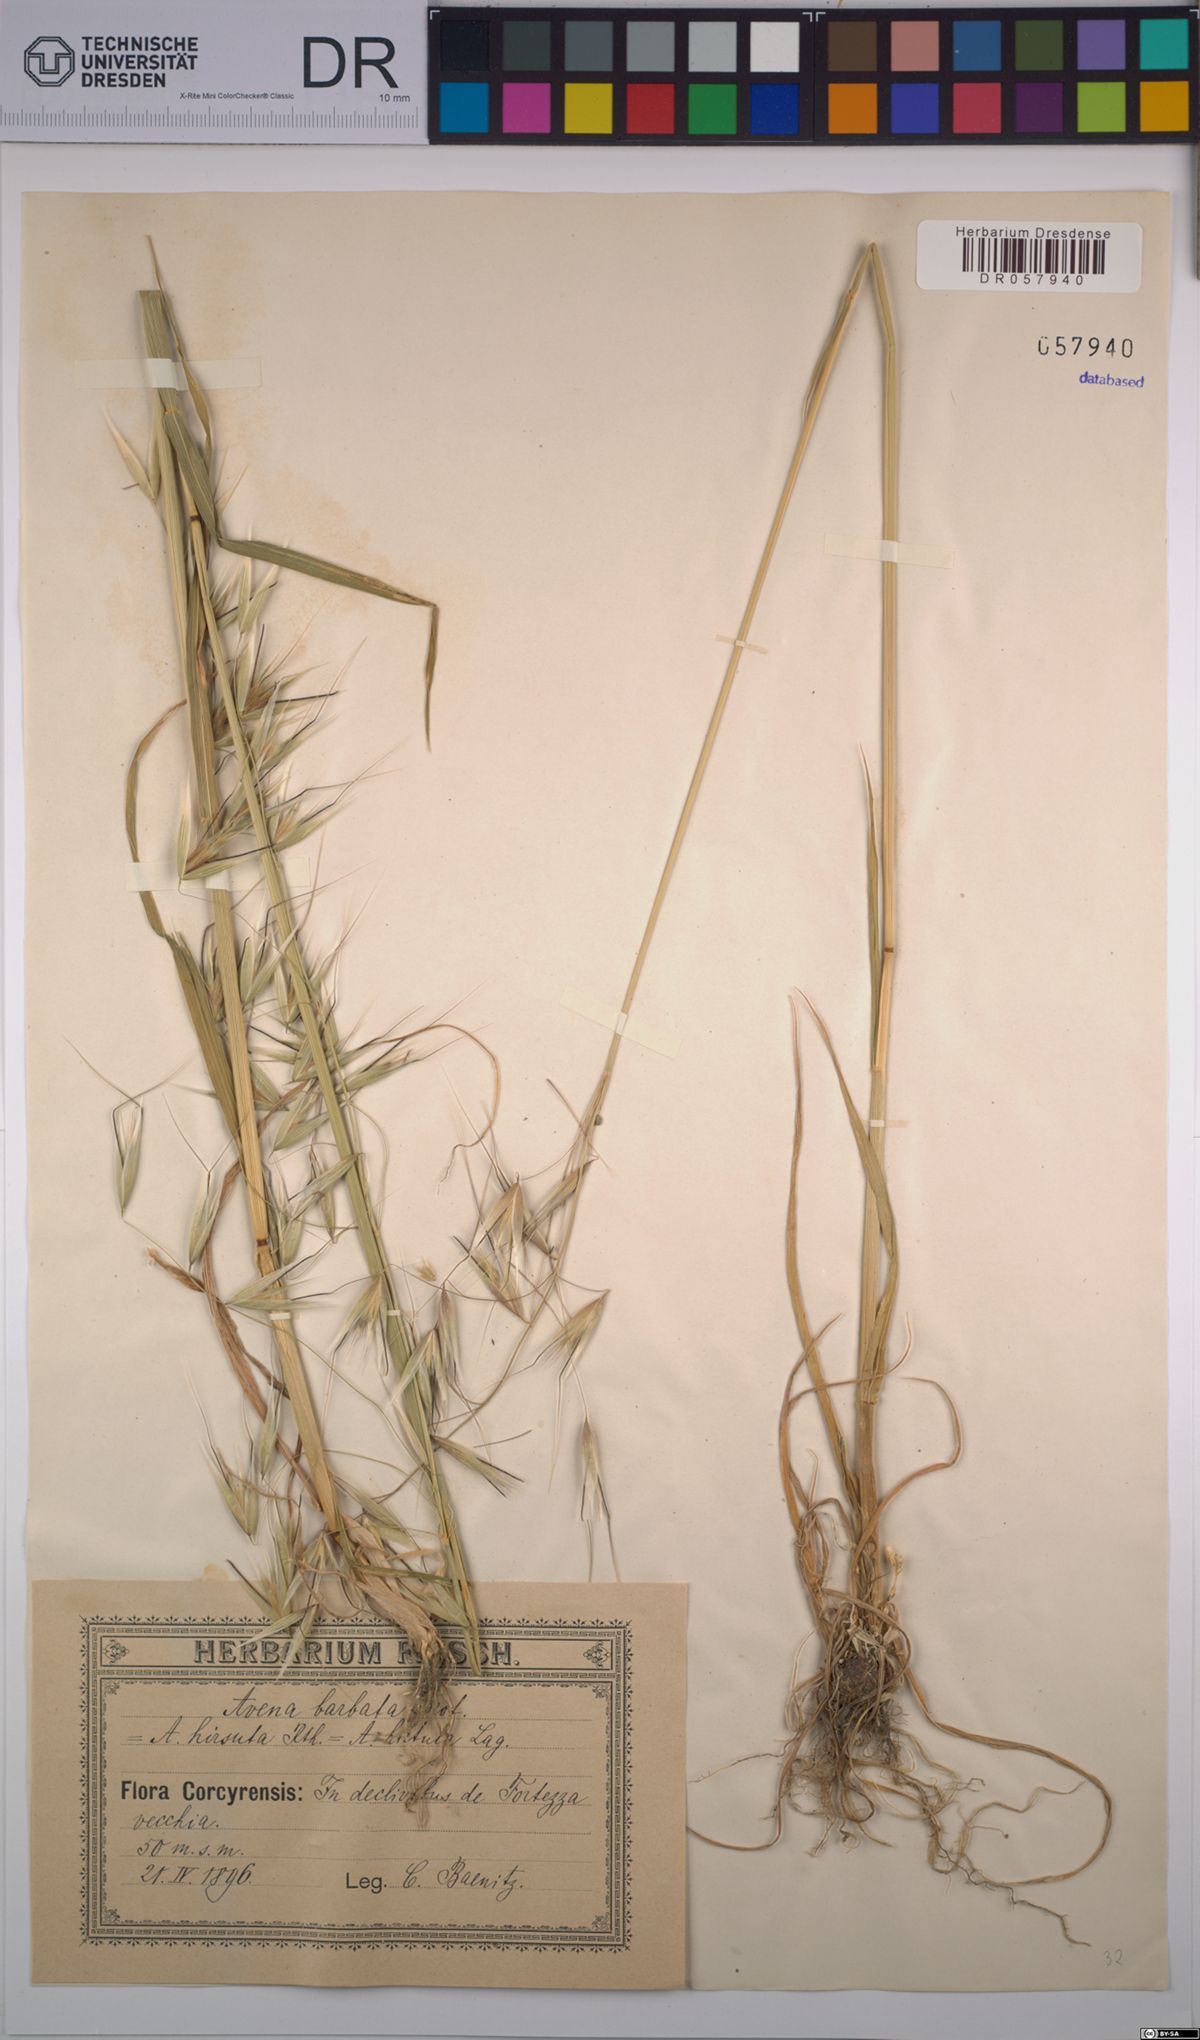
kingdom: Plantae
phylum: Tracheophyta
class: Liliopsida
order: Poales
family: Poaceae
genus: Avena
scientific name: Avena barbata
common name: Slender oat
